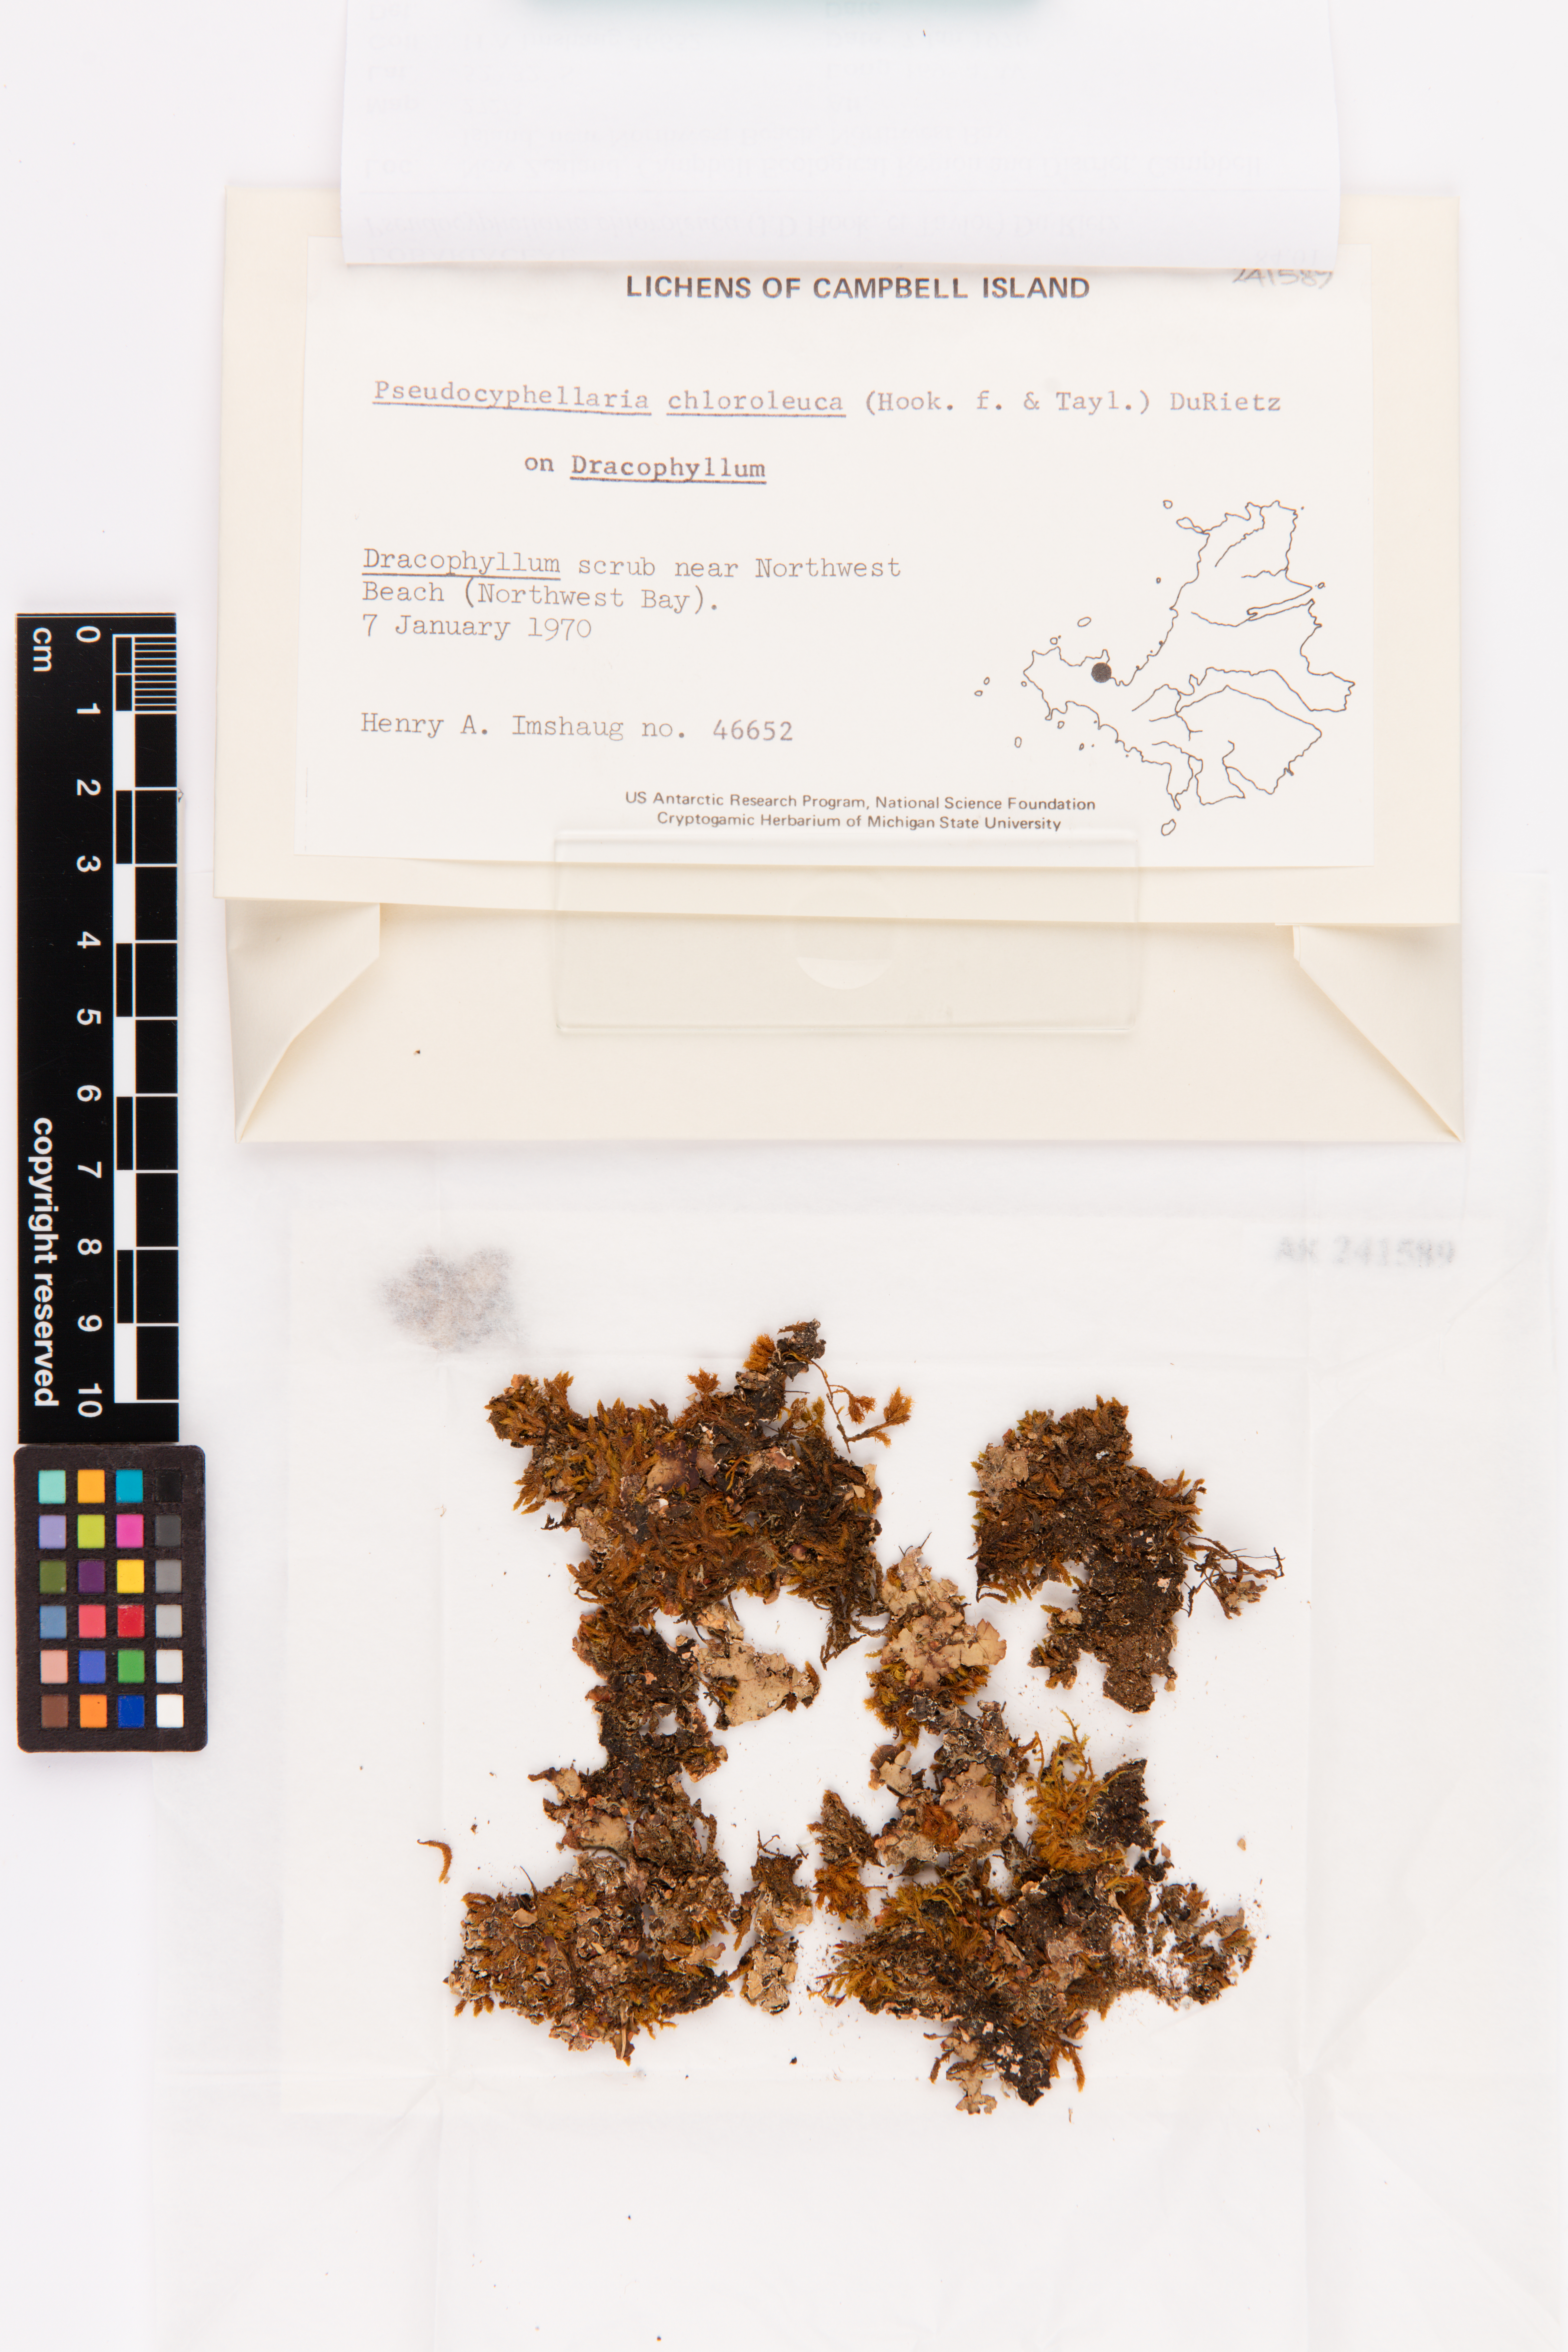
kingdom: Fungi
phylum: Ascomycota
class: Lecanoromycetes
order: Peltigerales
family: Lobariaceae
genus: Pseudocyphellaria
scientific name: Pseudocyphellaria chloroleuca
